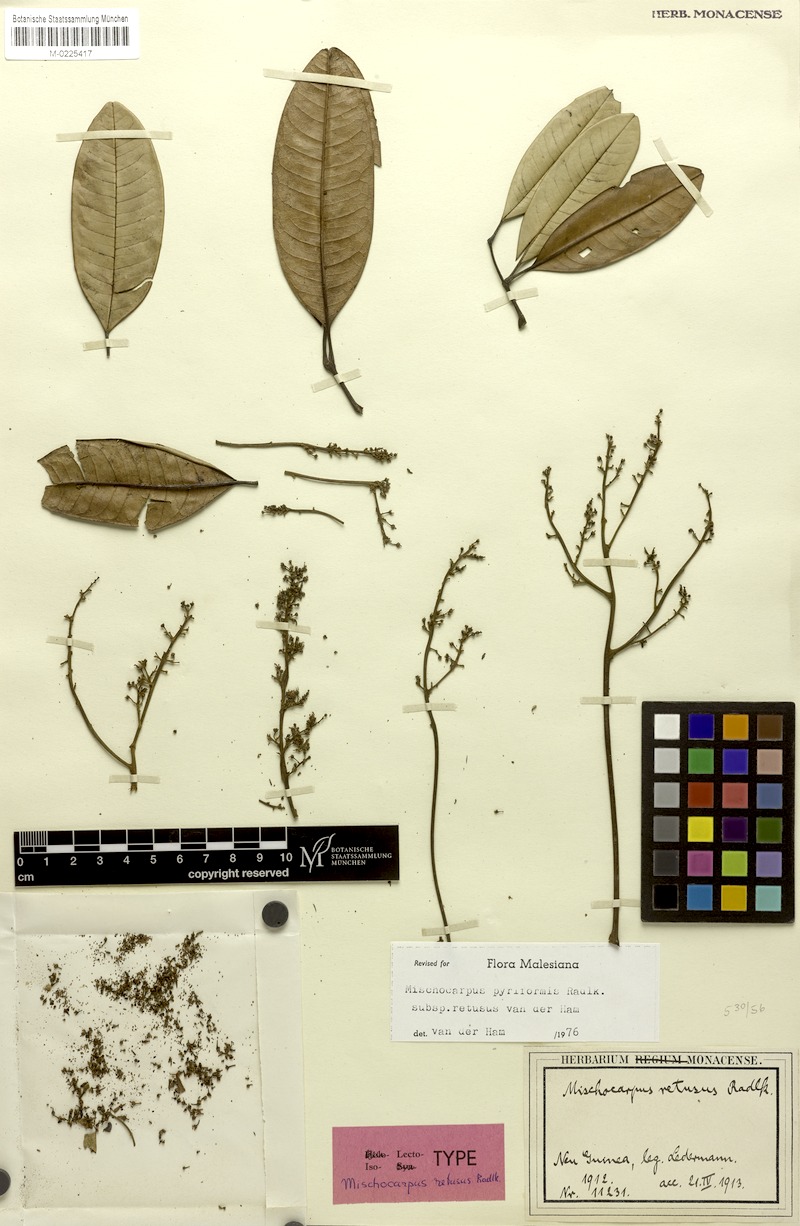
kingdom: Plantae
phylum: Tracheophyta
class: Magnoliopsida
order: Sapindales
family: Sapindaceae
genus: Mischocarpus
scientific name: Mischocarpus pyriformis
